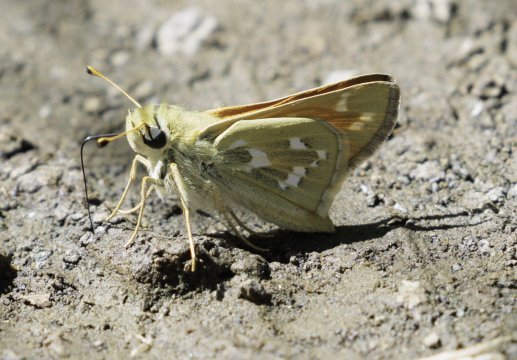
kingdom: Animalia
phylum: Arthropoda
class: Insecta
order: Lepidoptera
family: Hesperiidae
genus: Hesperia
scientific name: Hesperia comma
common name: Western Branded Skipper
